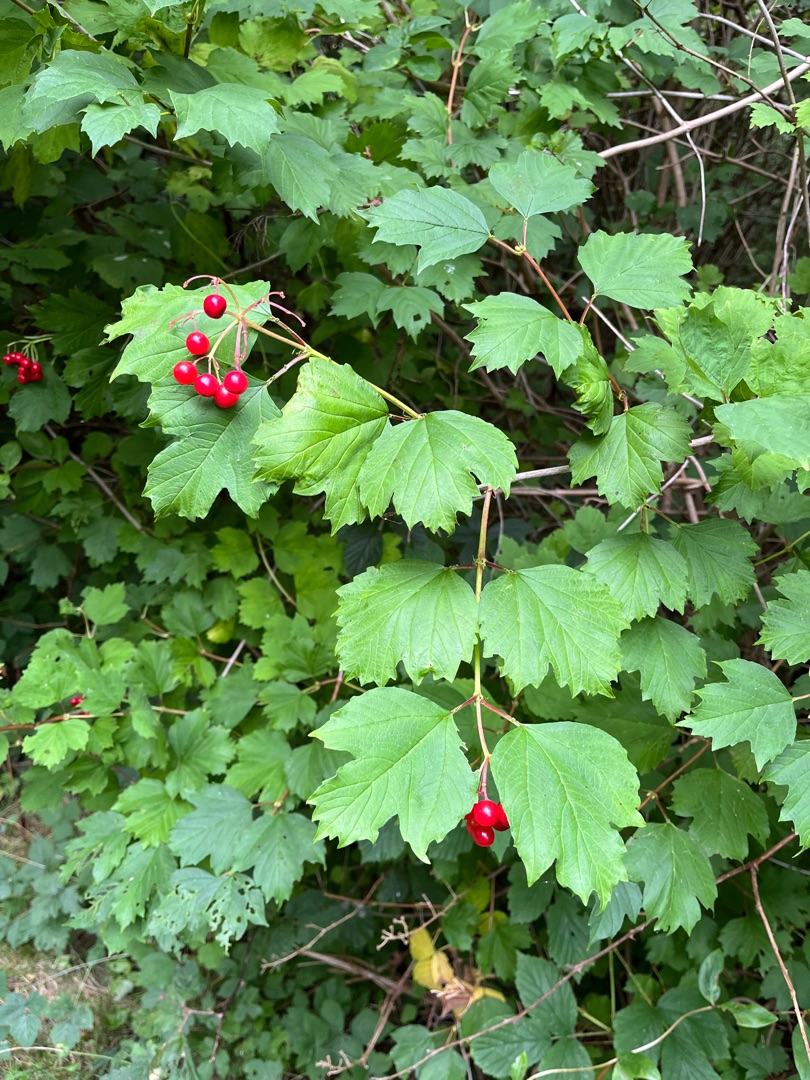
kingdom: Plantae
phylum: Tracheophyta
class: Magnoliopsida
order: Dipsacales
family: Viburnaceae
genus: Viburnum
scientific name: Viburnum opulus
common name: Kvalkved
